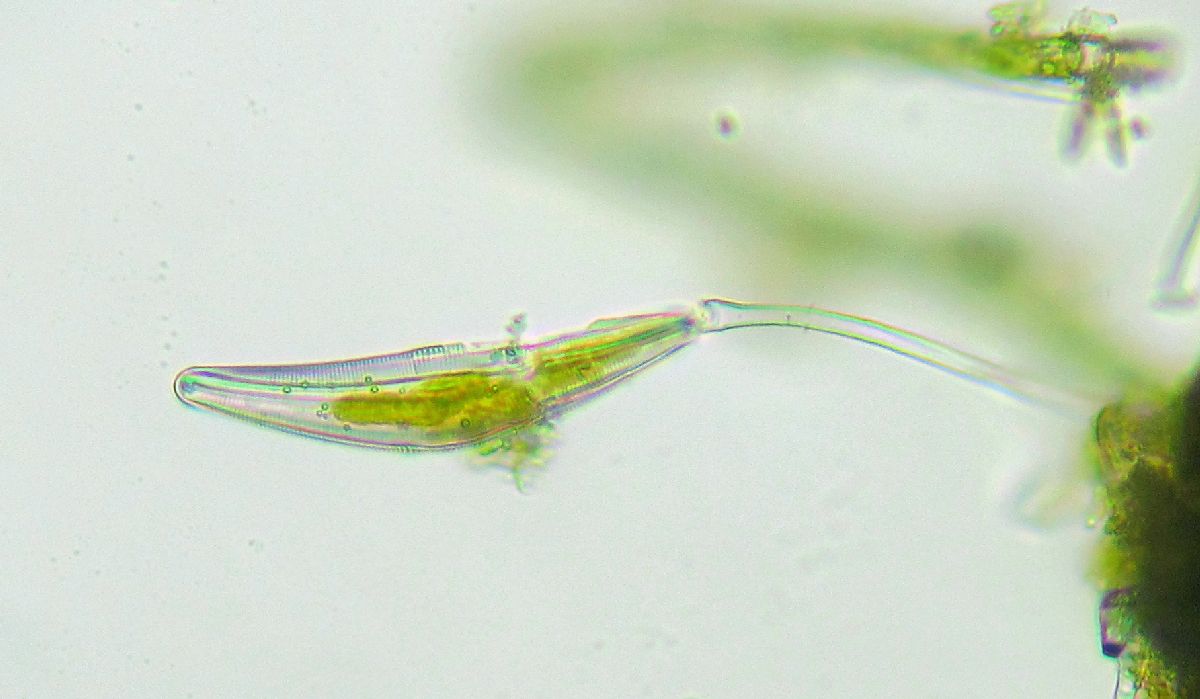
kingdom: Chromista
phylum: Ochrophyta
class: Bacillariophyceae
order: Cymbellales
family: Cymbellaceae
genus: Cymbella
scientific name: Cymbella
